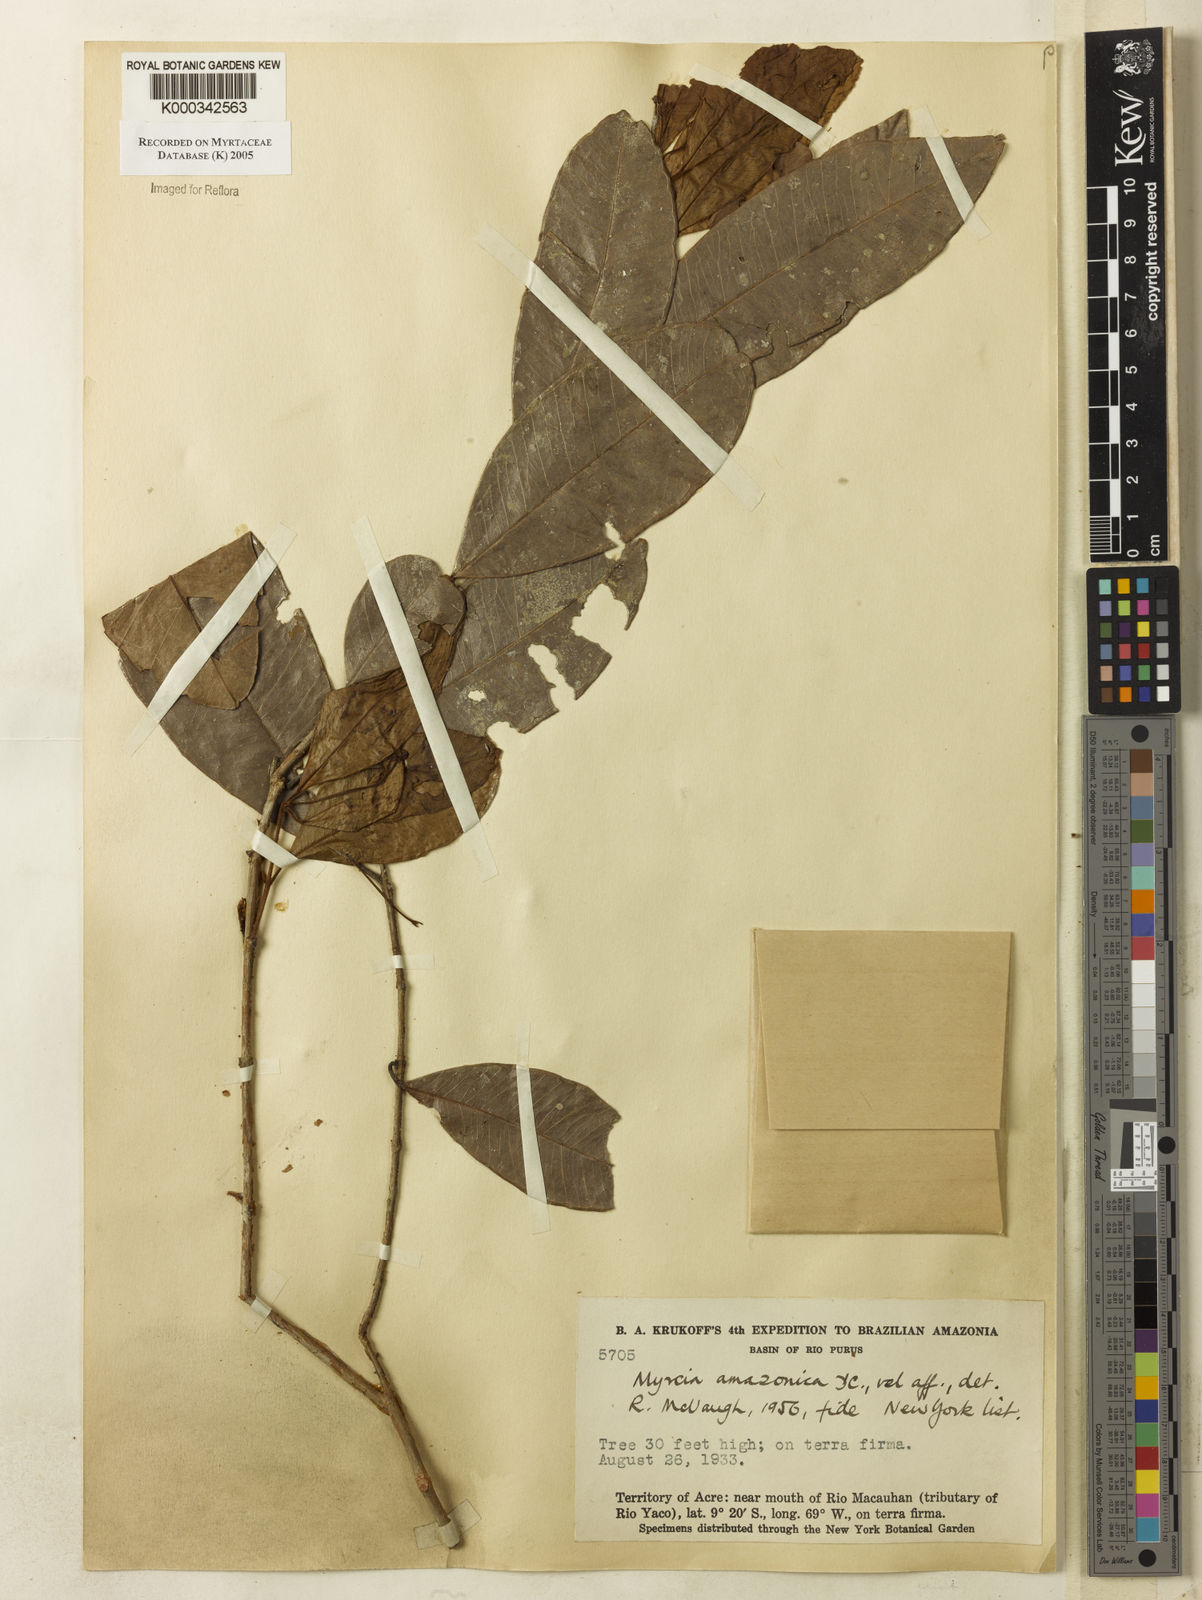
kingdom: Plantae
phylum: Tracheophyta
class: Magnoliopsida
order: Myrtales
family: Myrtaceae
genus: Myrcia
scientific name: Myrcia amazonica
